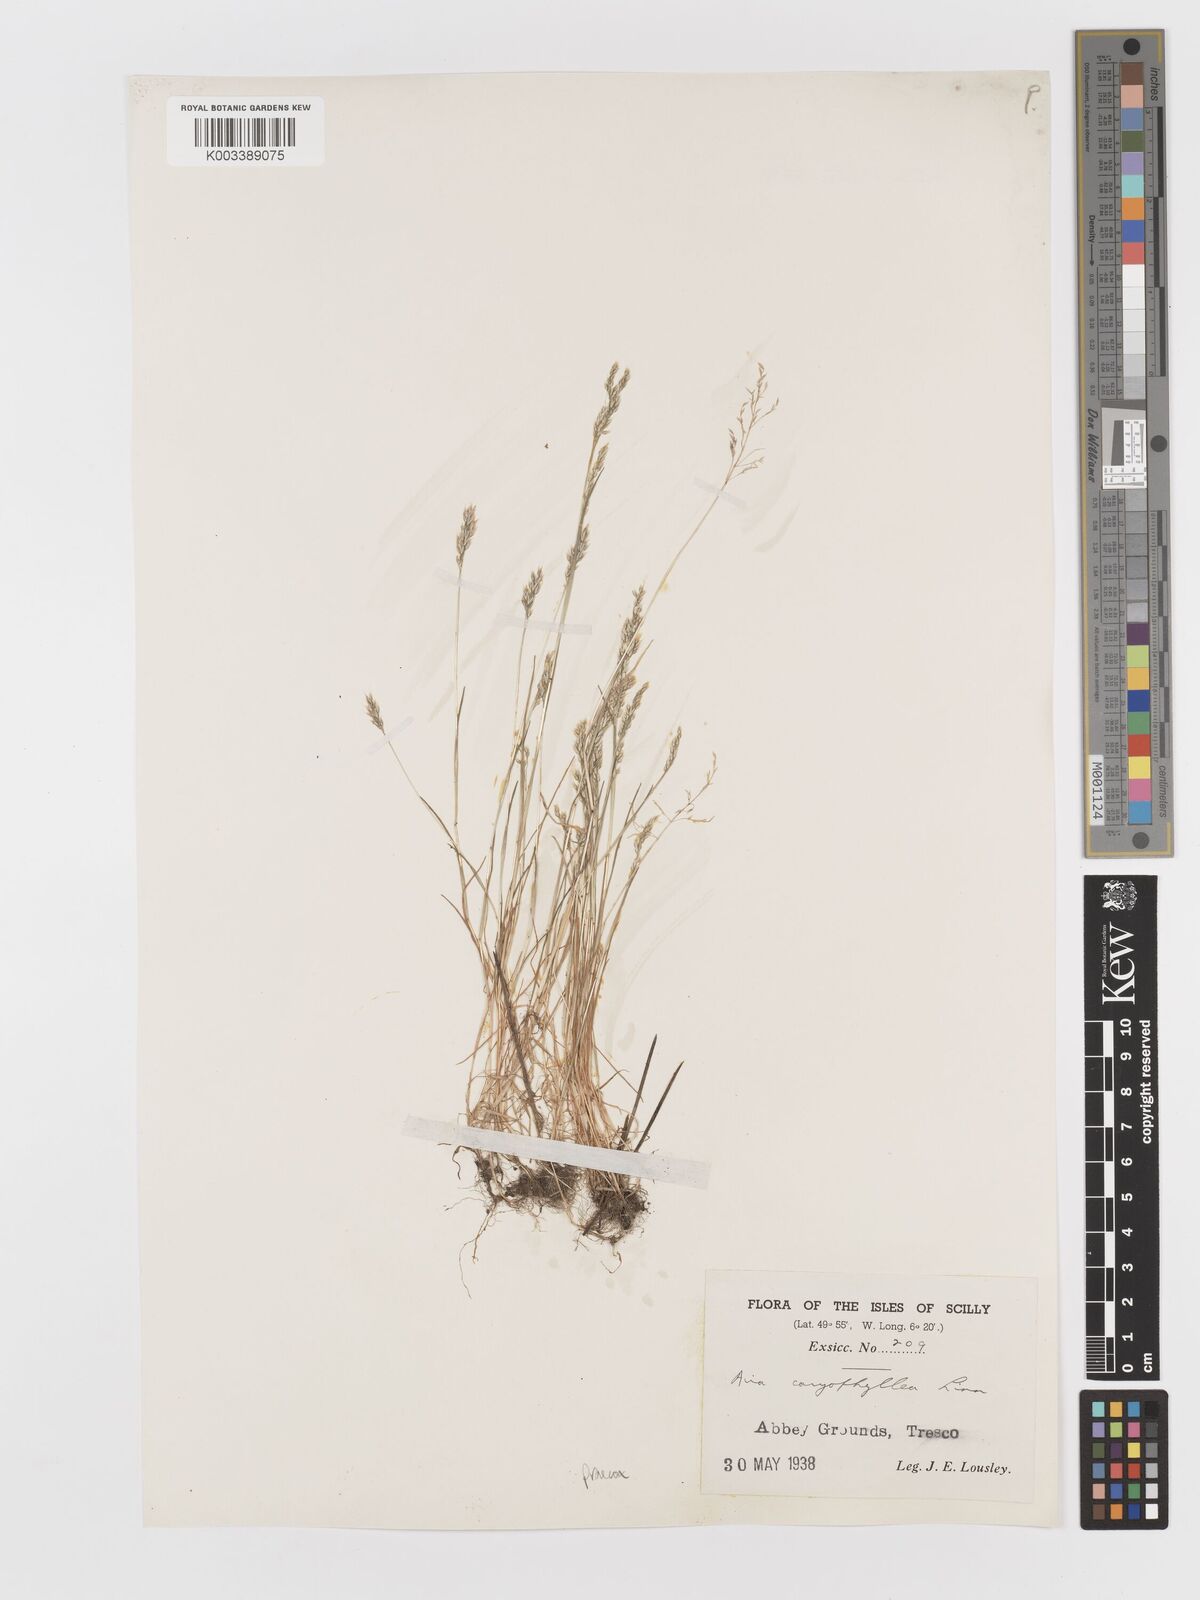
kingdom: Plantae
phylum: Tracheophyta
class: Liliopsida
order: Poales
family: Poaceae
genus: Aira
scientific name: Aira praecox
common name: Early hair-grass
